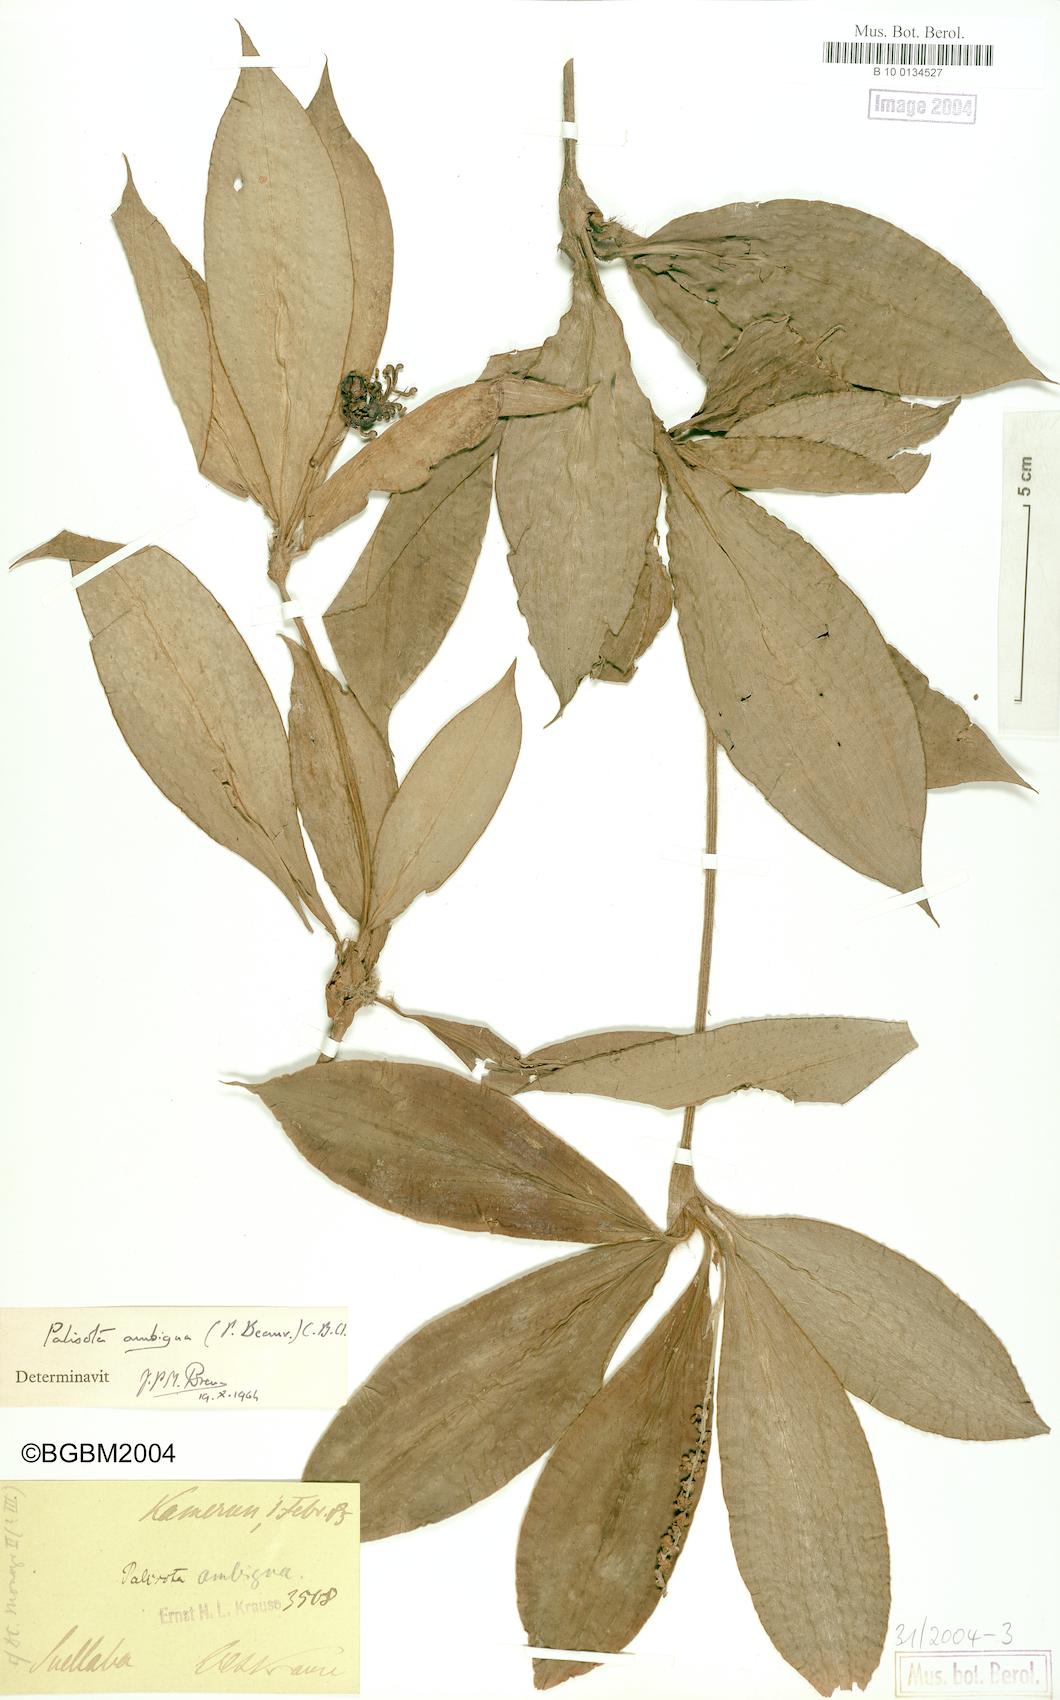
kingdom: Plantae
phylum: Tracheophyta
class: Liliopsida
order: Commelinales
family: Commelinaceae
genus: Palisota
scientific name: Palisota ambigua
